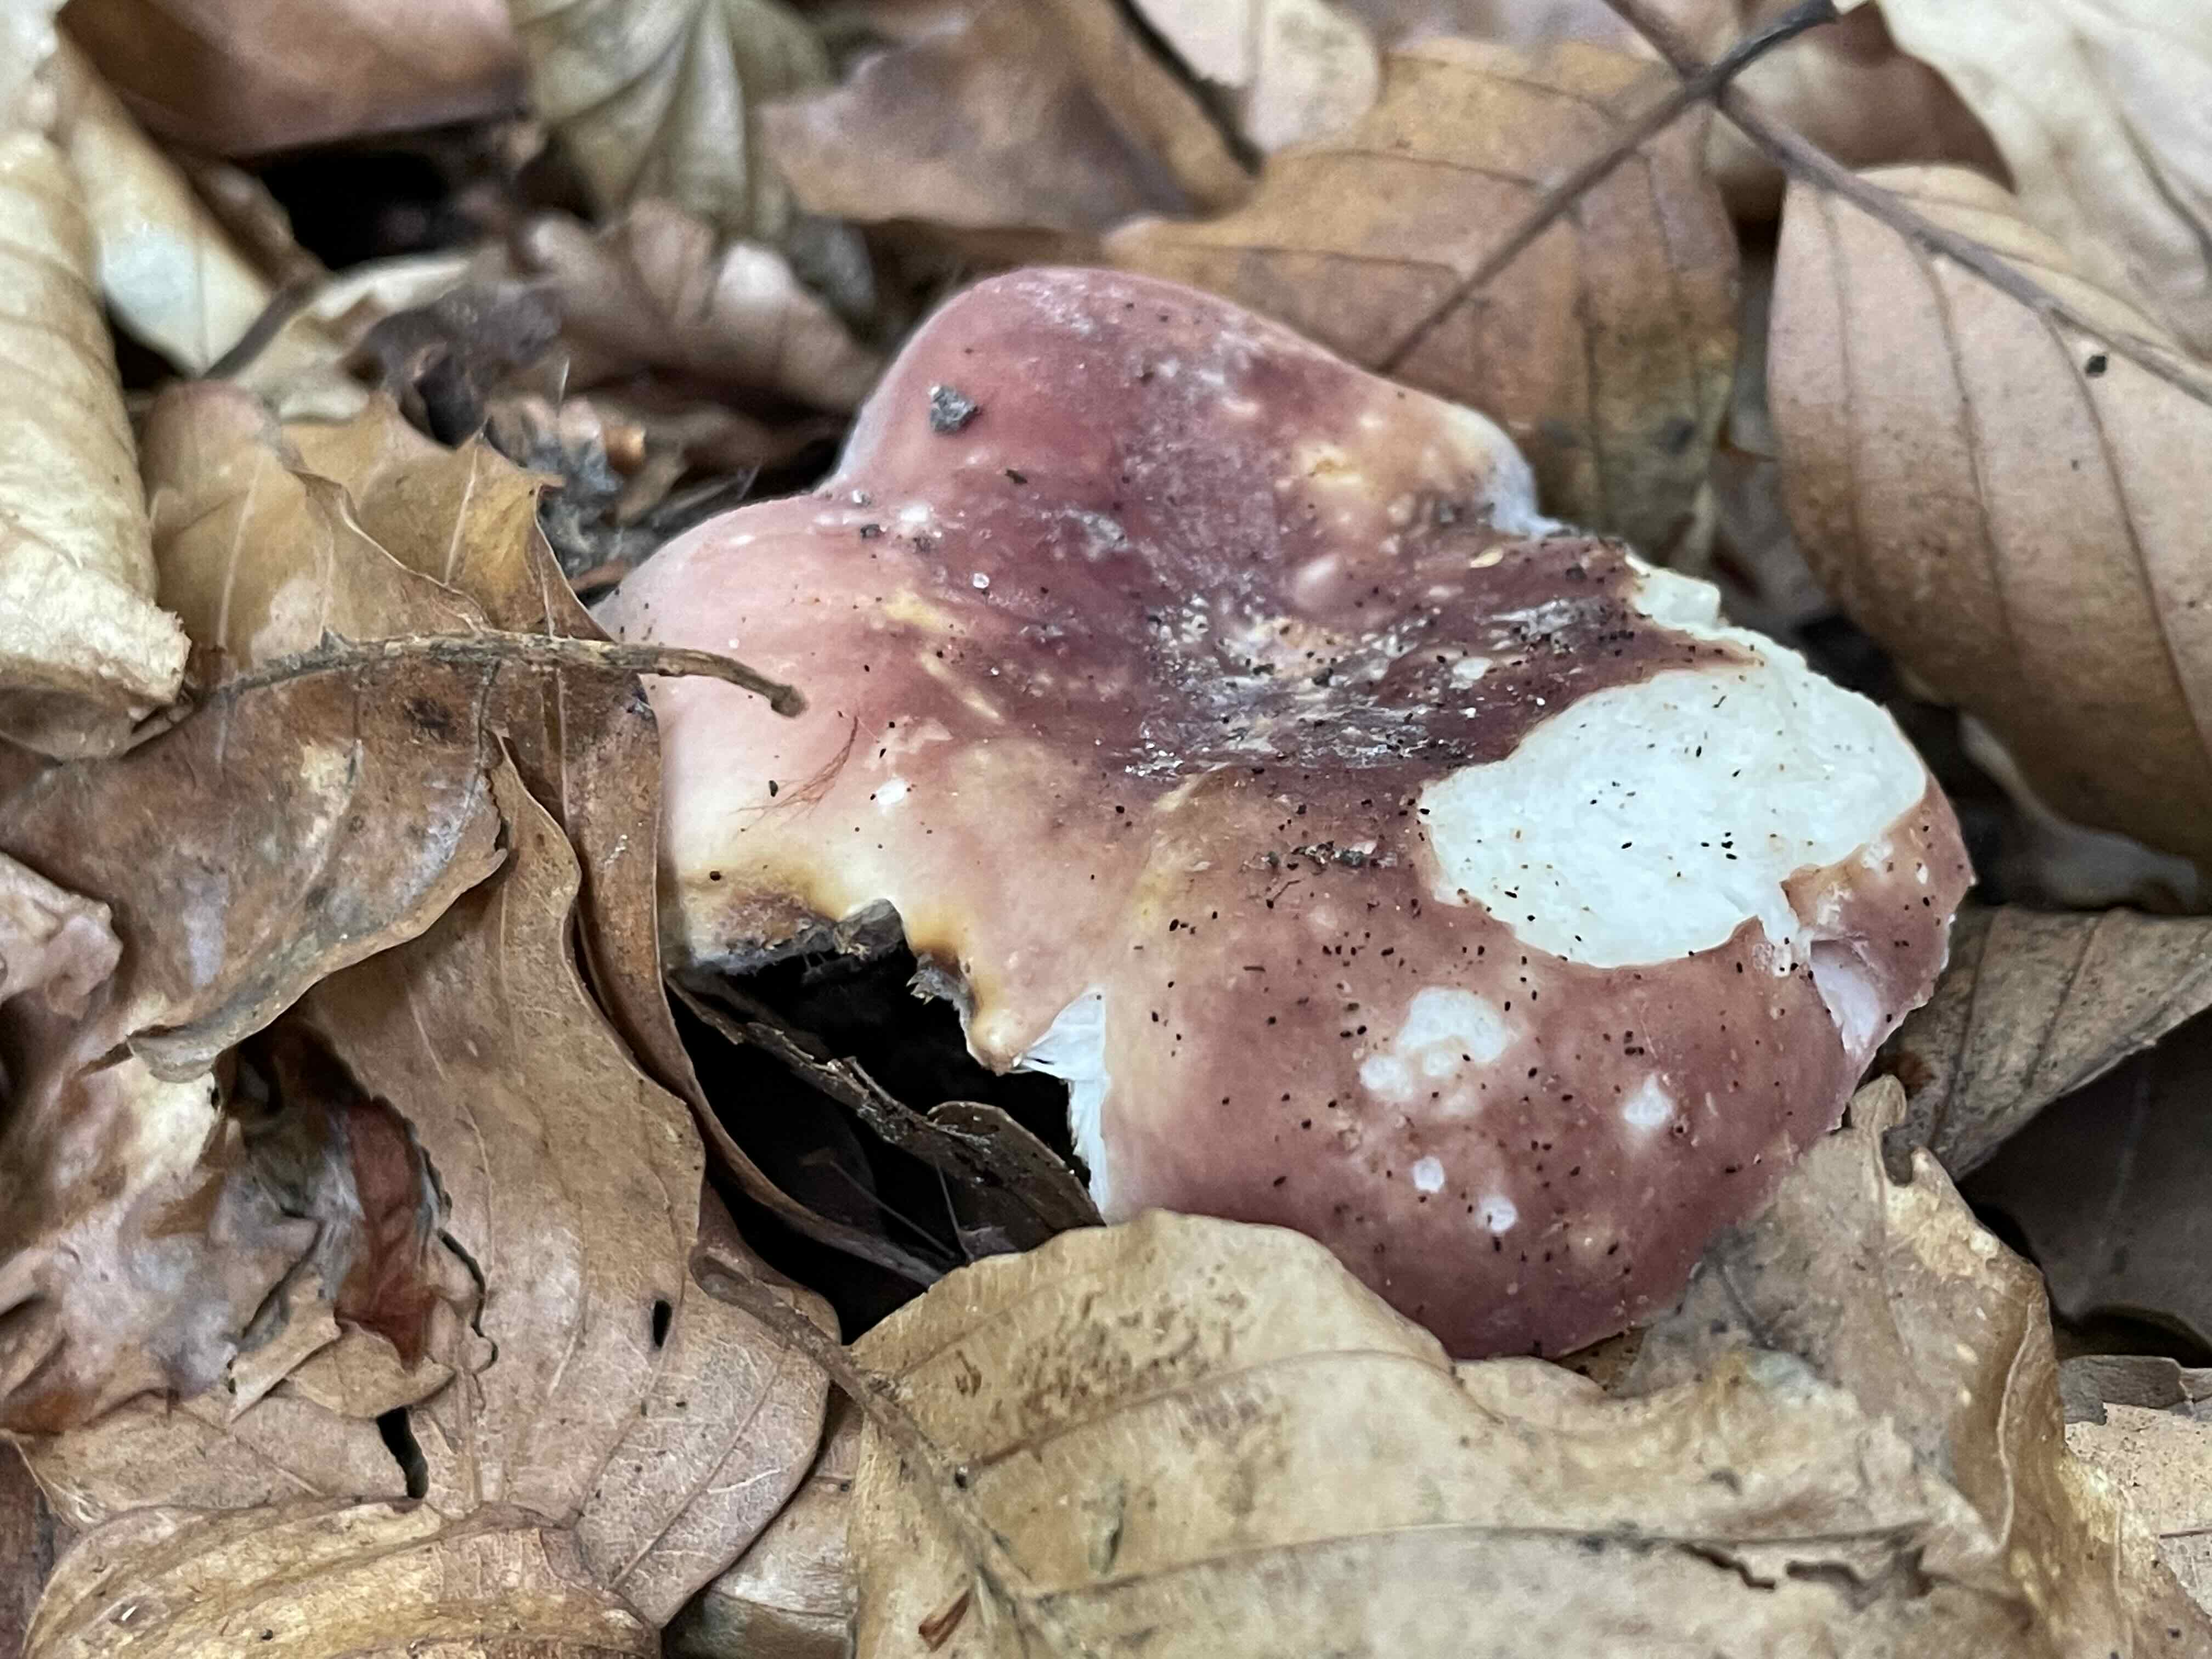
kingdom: Fungi
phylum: Basidiomycota
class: Agaricomycetes
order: Russulales
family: Russulaceae
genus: Russula
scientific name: Russula vesca
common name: spiselig skørhat
